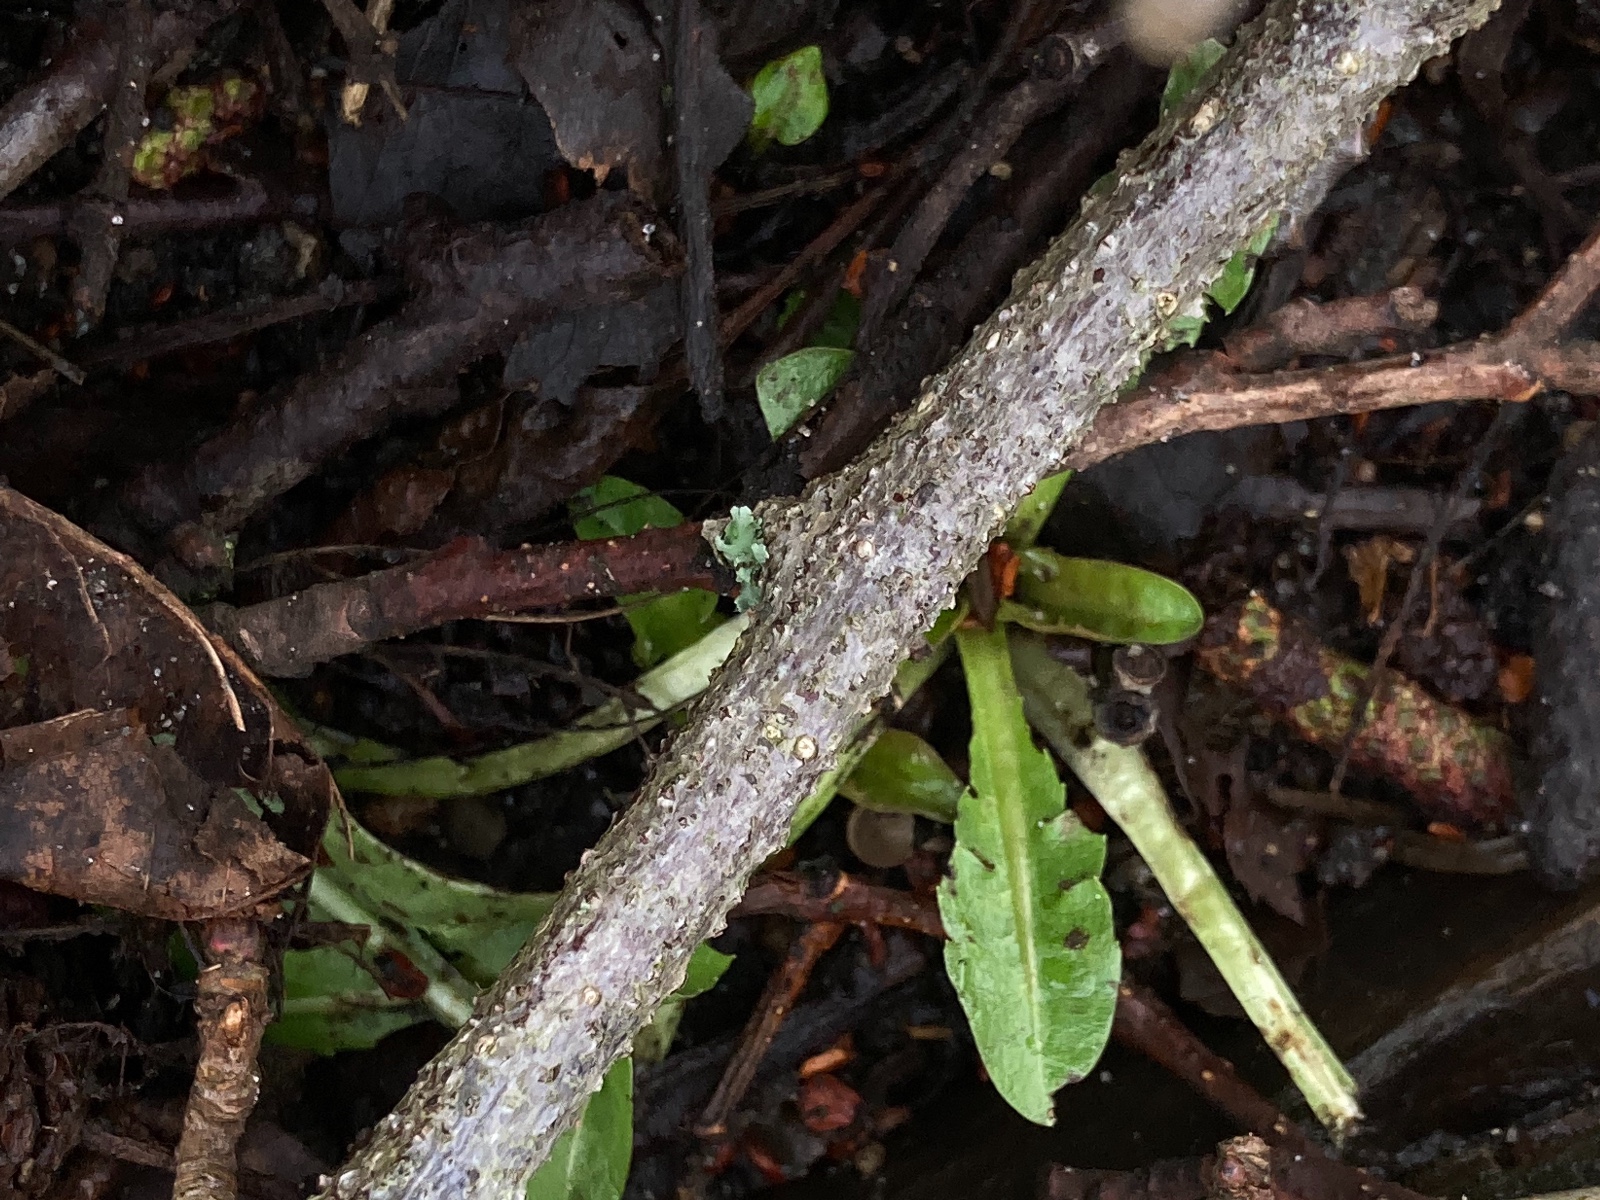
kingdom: Fungi
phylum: Ascomycota
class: Sordariomycetes
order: Diaporthales
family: Valsaceae
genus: Cytospora
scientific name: Cytospora oxyacanthae
